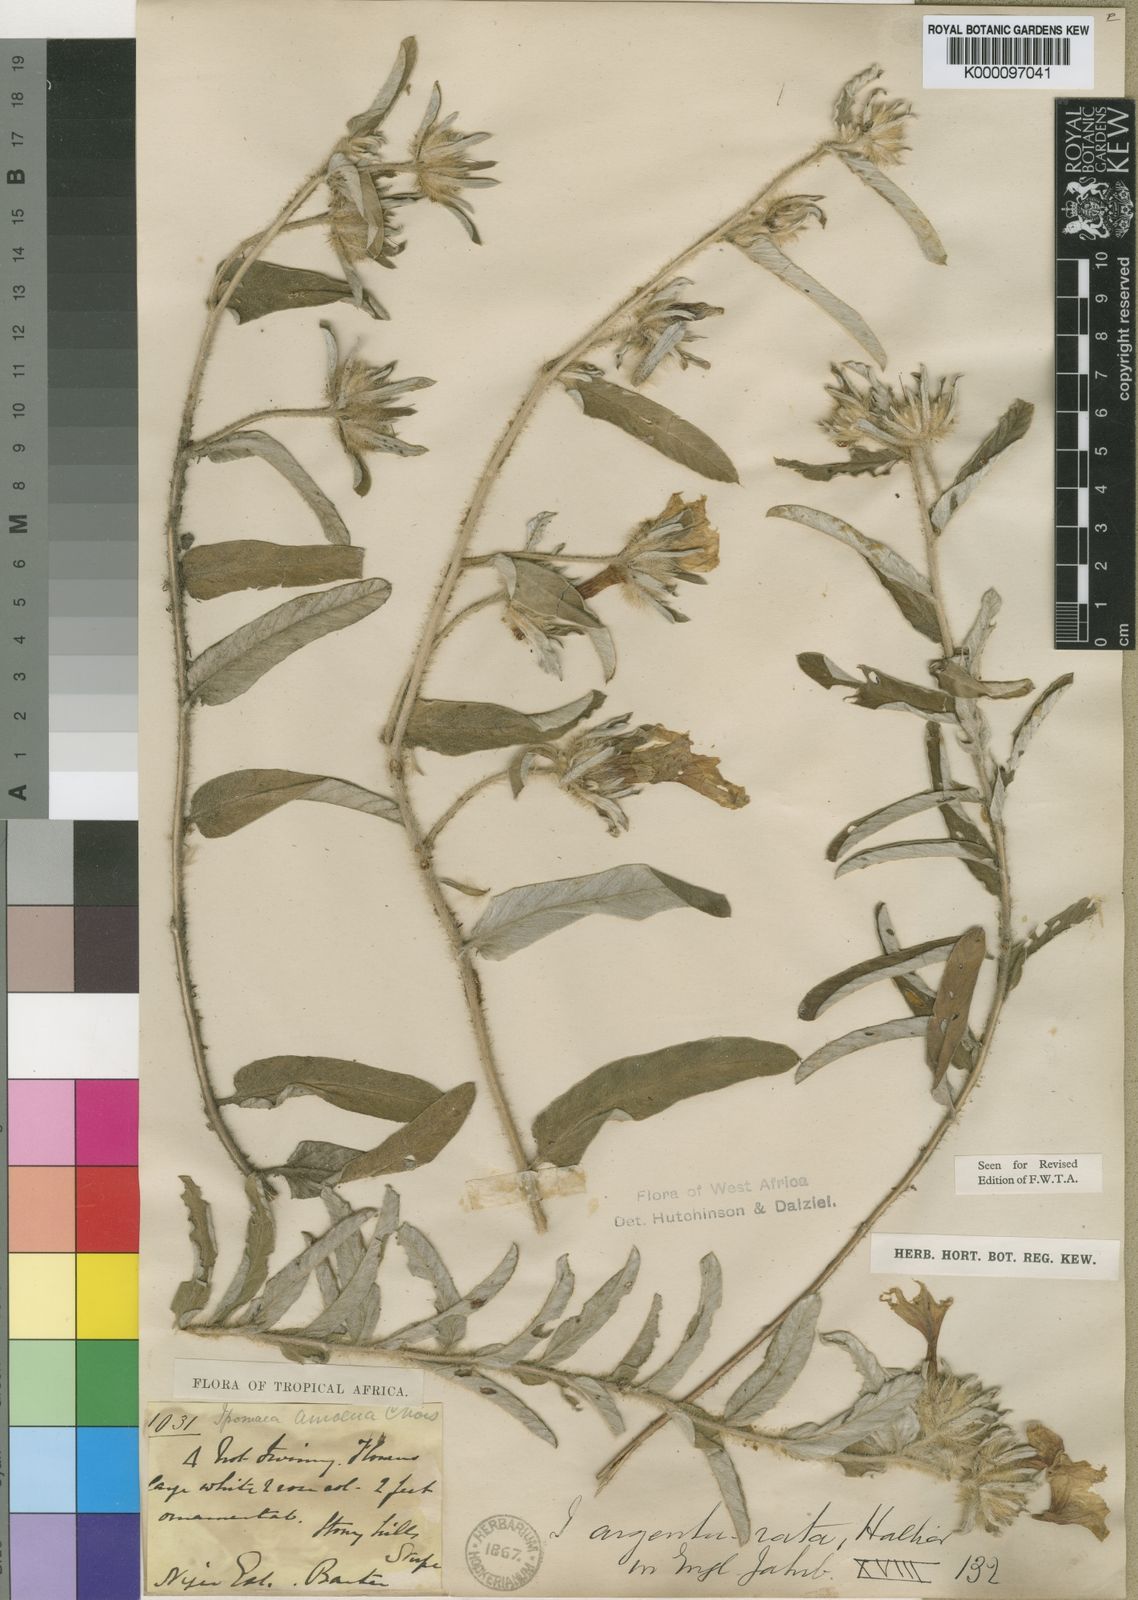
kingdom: Plantae
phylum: Tracheophyta
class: Magnoliopsida
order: Solanales
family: Convolvulaceae
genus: Ipomoea
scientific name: Ipomoea argentaurata
